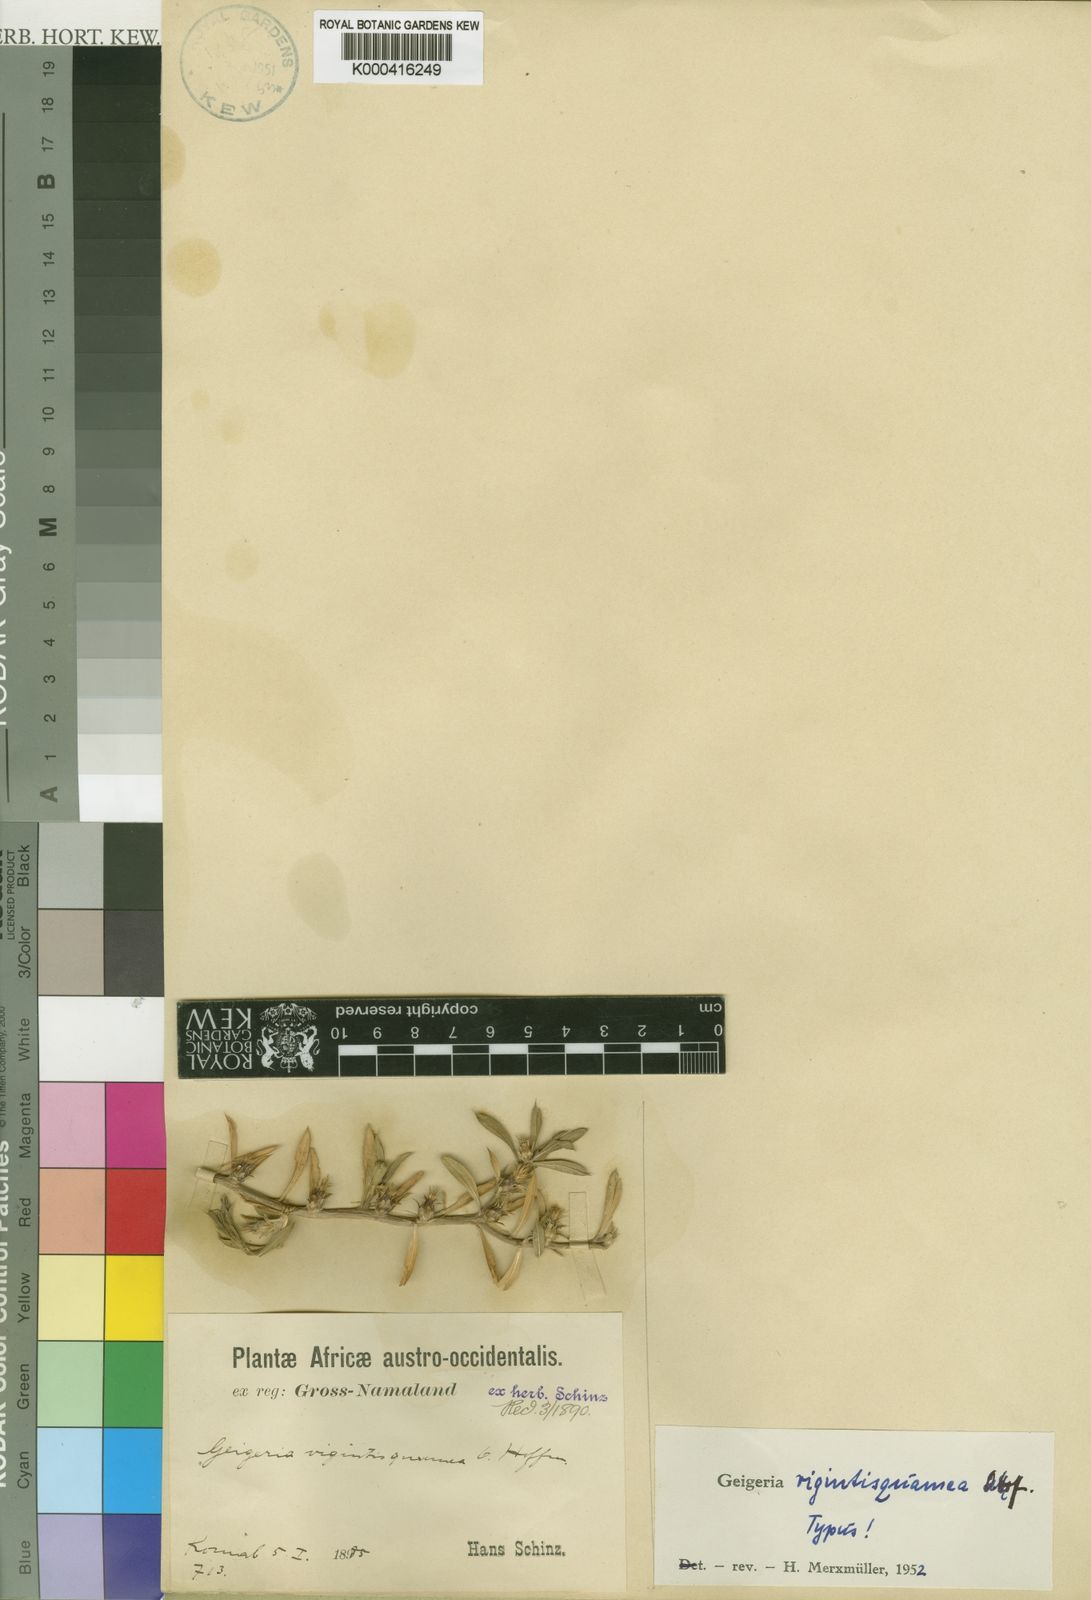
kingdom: Plantae
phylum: Tracheophyta
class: Magnoliopsida
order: Asterales
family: Asteraceae
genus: Geigeria
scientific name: Geigeria vigintisquamea
